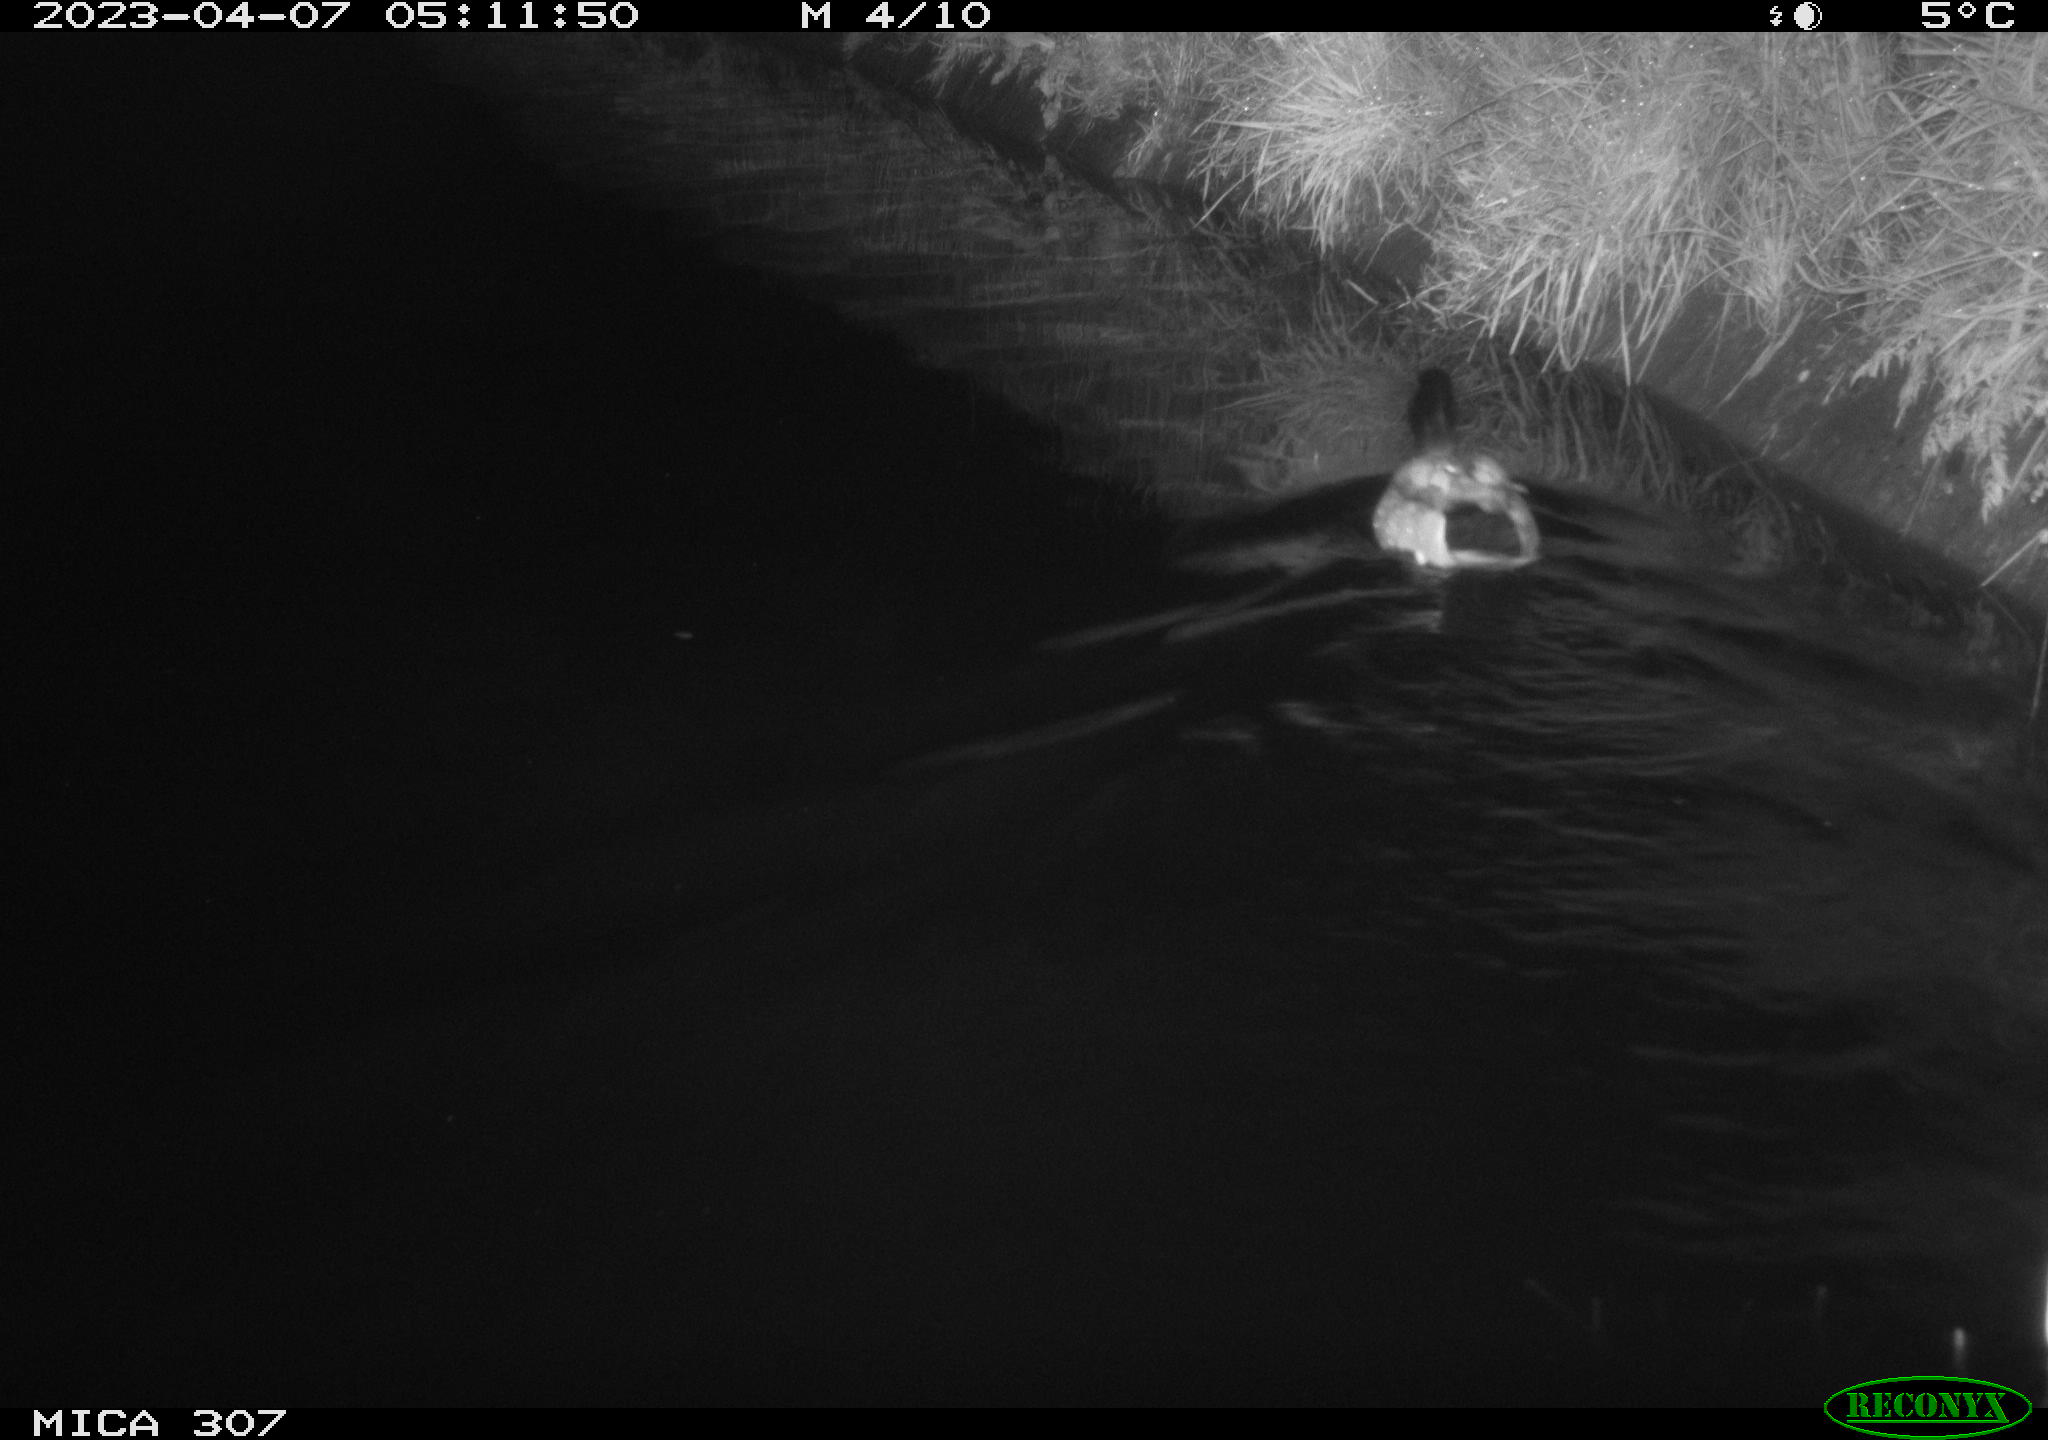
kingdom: Animalia
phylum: Chordata
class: Aves
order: Anseriformes
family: Anatidae
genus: Anas
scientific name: Anas
